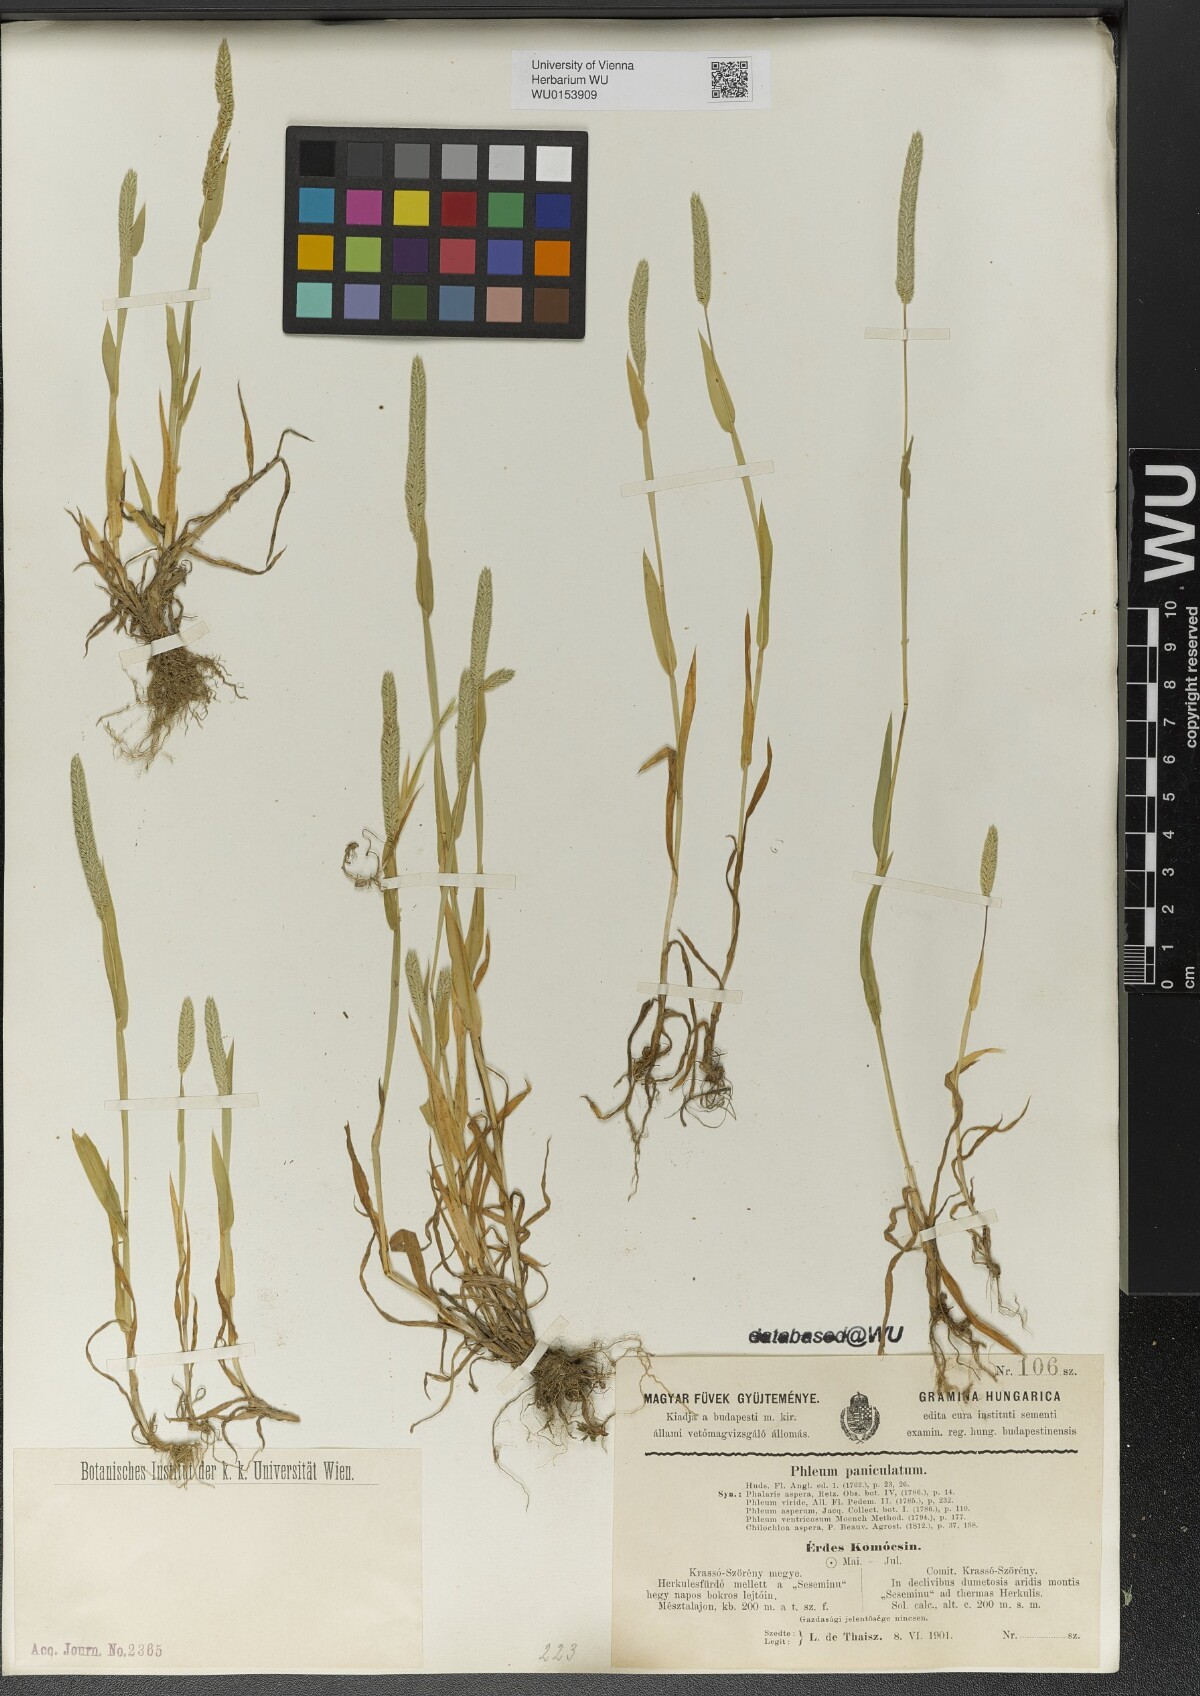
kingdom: Plantae
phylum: Tracheophyta
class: Liliopsida
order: Poales
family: Poaceae
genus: Phleum
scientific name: Phleum paniculatum
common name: British timothy
